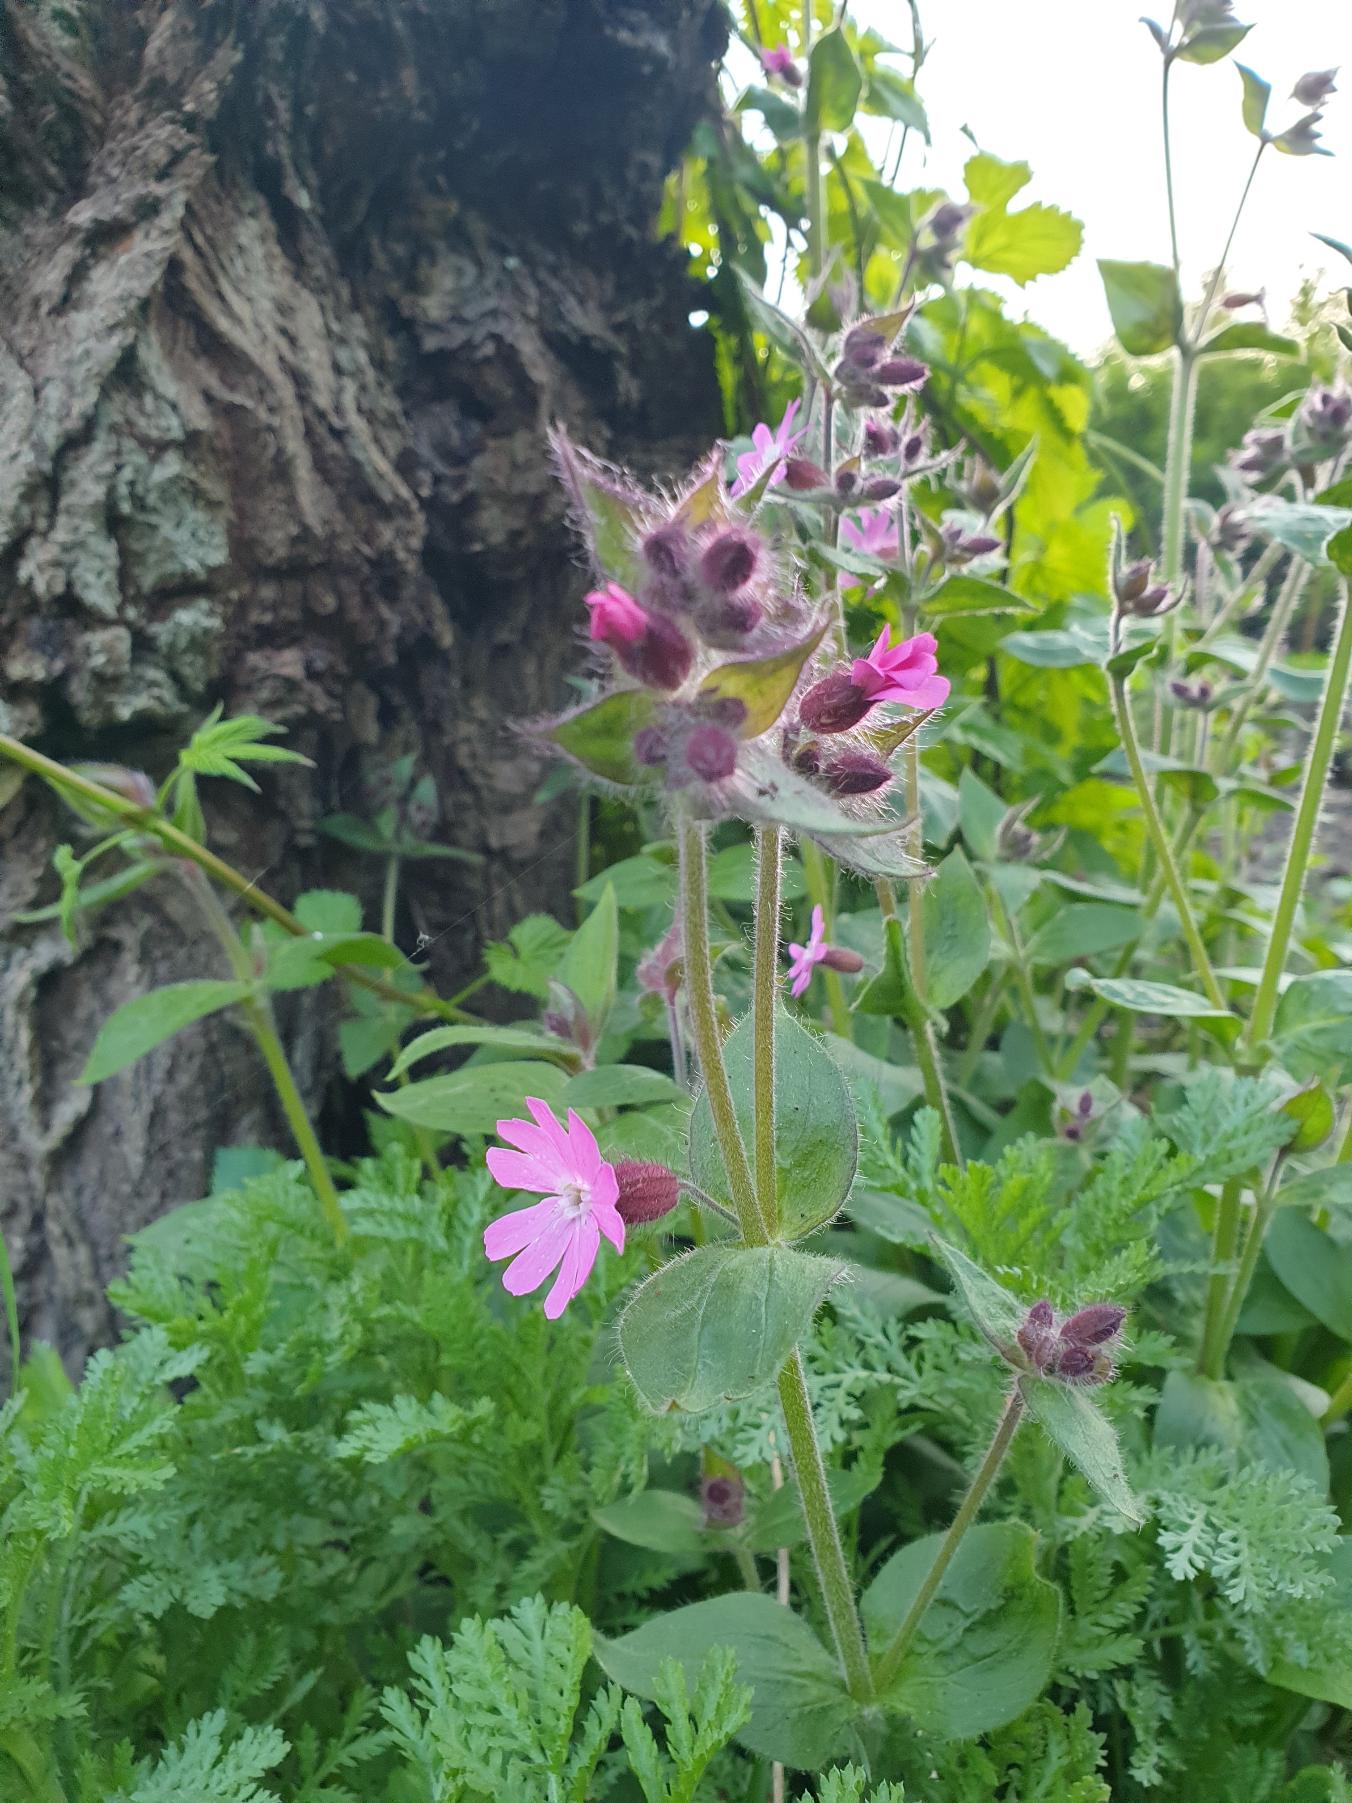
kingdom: Plantae
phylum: Tracheophyta
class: Magnoliopsida
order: Caryophyllales
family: Caryophyllaceae
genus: Silene
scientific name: Silene dioica
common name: Dagpragtstjerne
